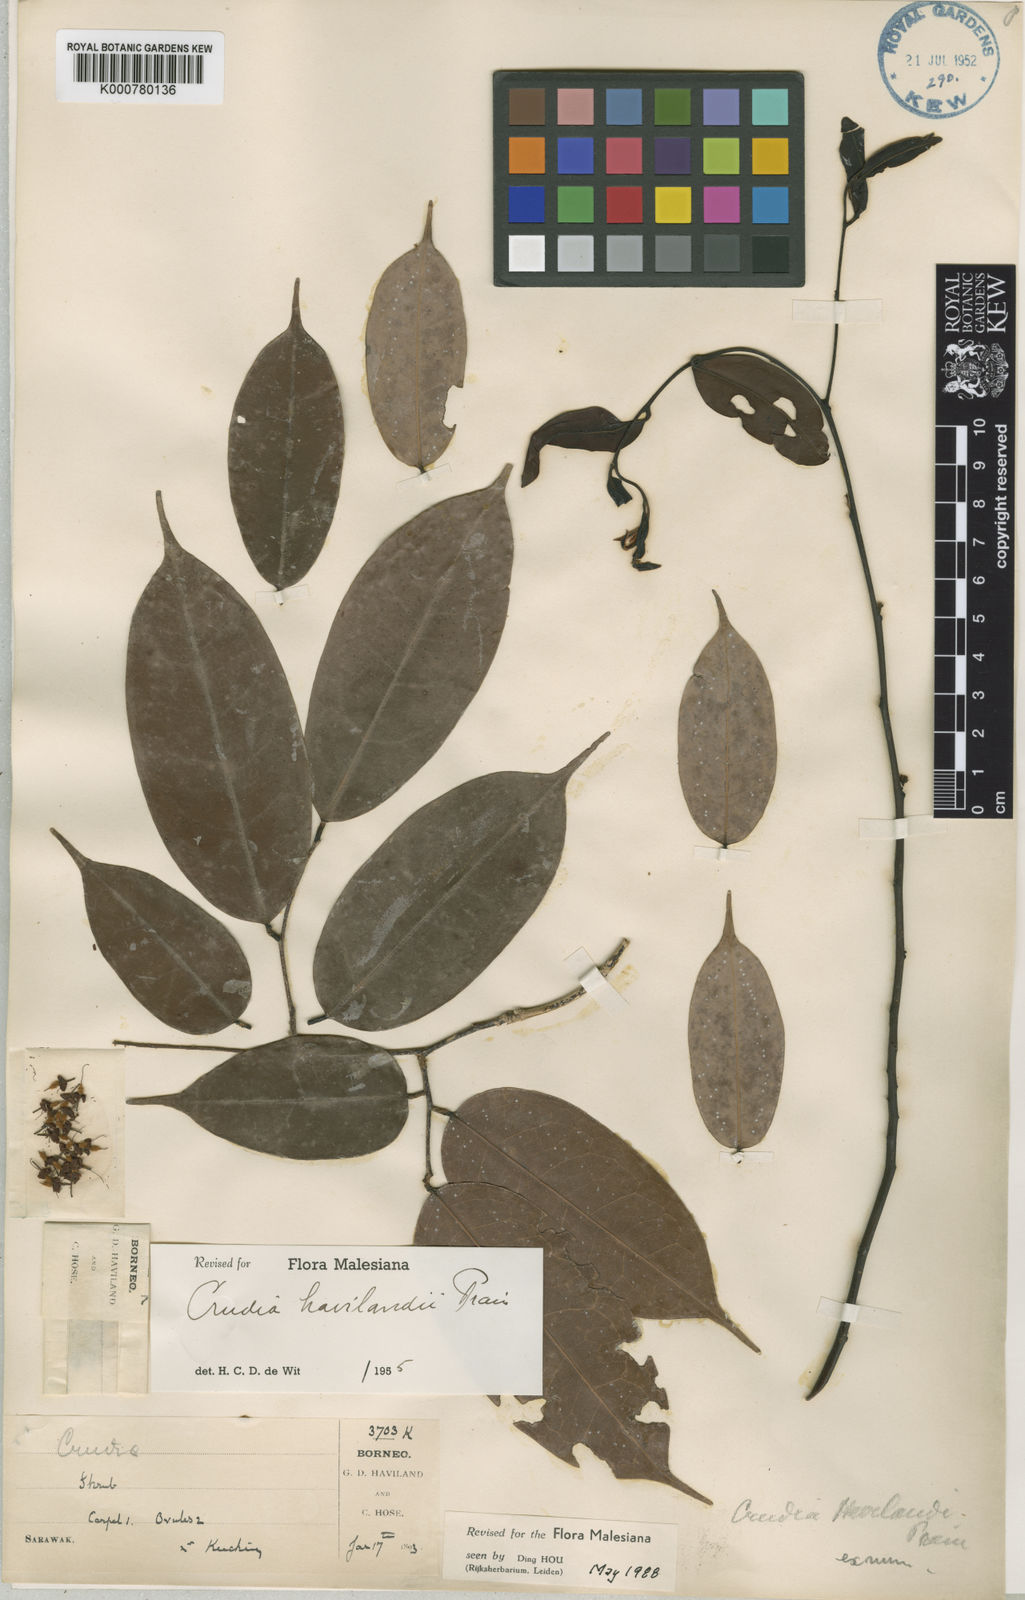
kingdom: Plantae
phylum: Tracheophyta
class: Magnoliopsida
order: Fabales
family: Fabaceae
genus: Crudia
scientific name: Crudia wrayi
